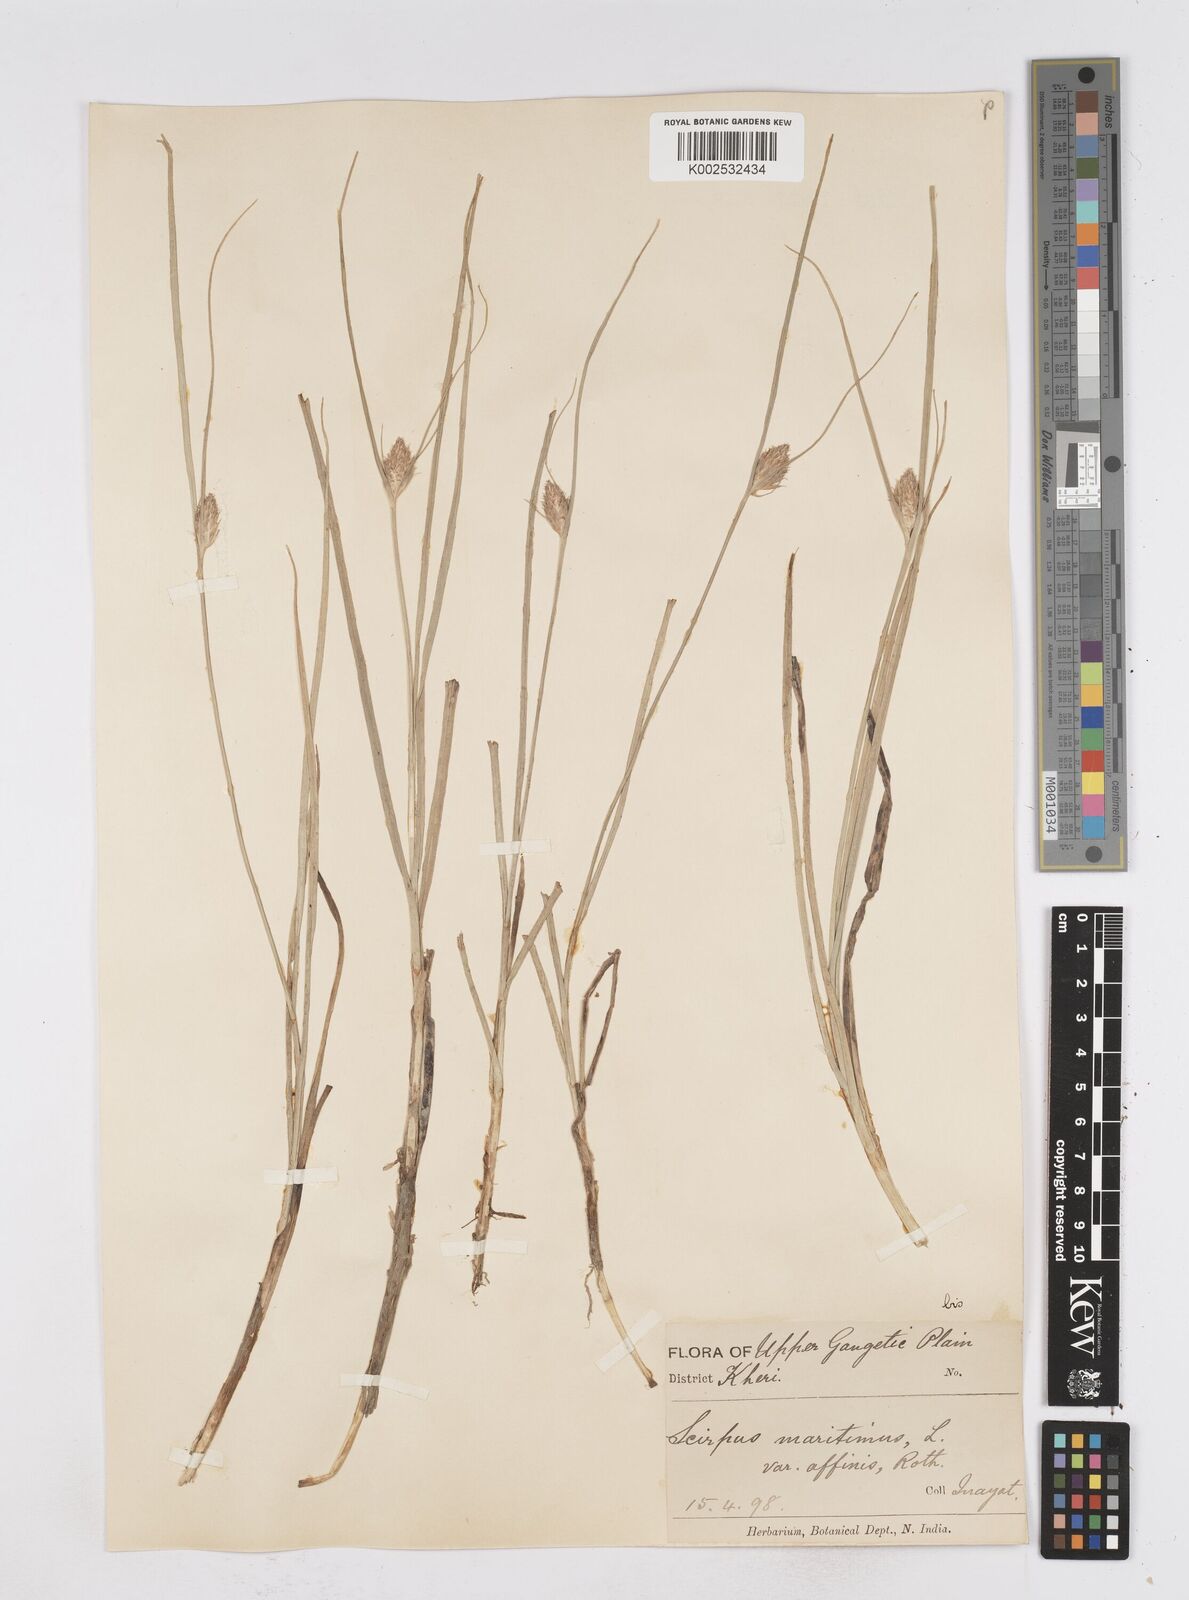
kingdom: Plantae
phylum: Tracheophyta
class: Liliopsida
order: Poales
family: Cyperaceae
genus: Bolboschoenus
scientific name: Bolboschoenus maritimus
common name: Sea club-rush
